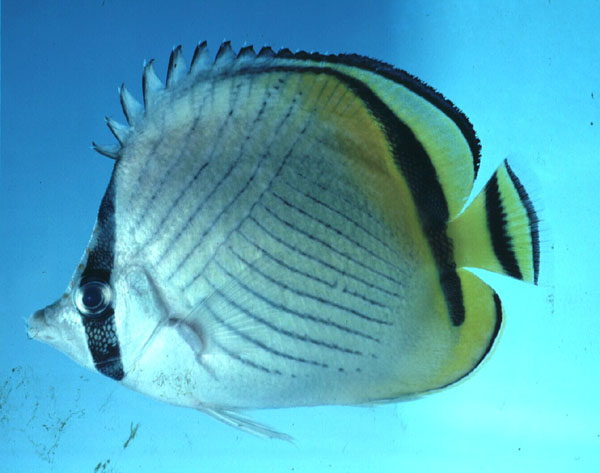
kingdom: Animalia
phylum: Chordata
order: Perciformes
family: Chaetodontidae
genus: Chaetodon
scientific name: Chaetodon vagabundus
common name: Vagabond butterflyfish
